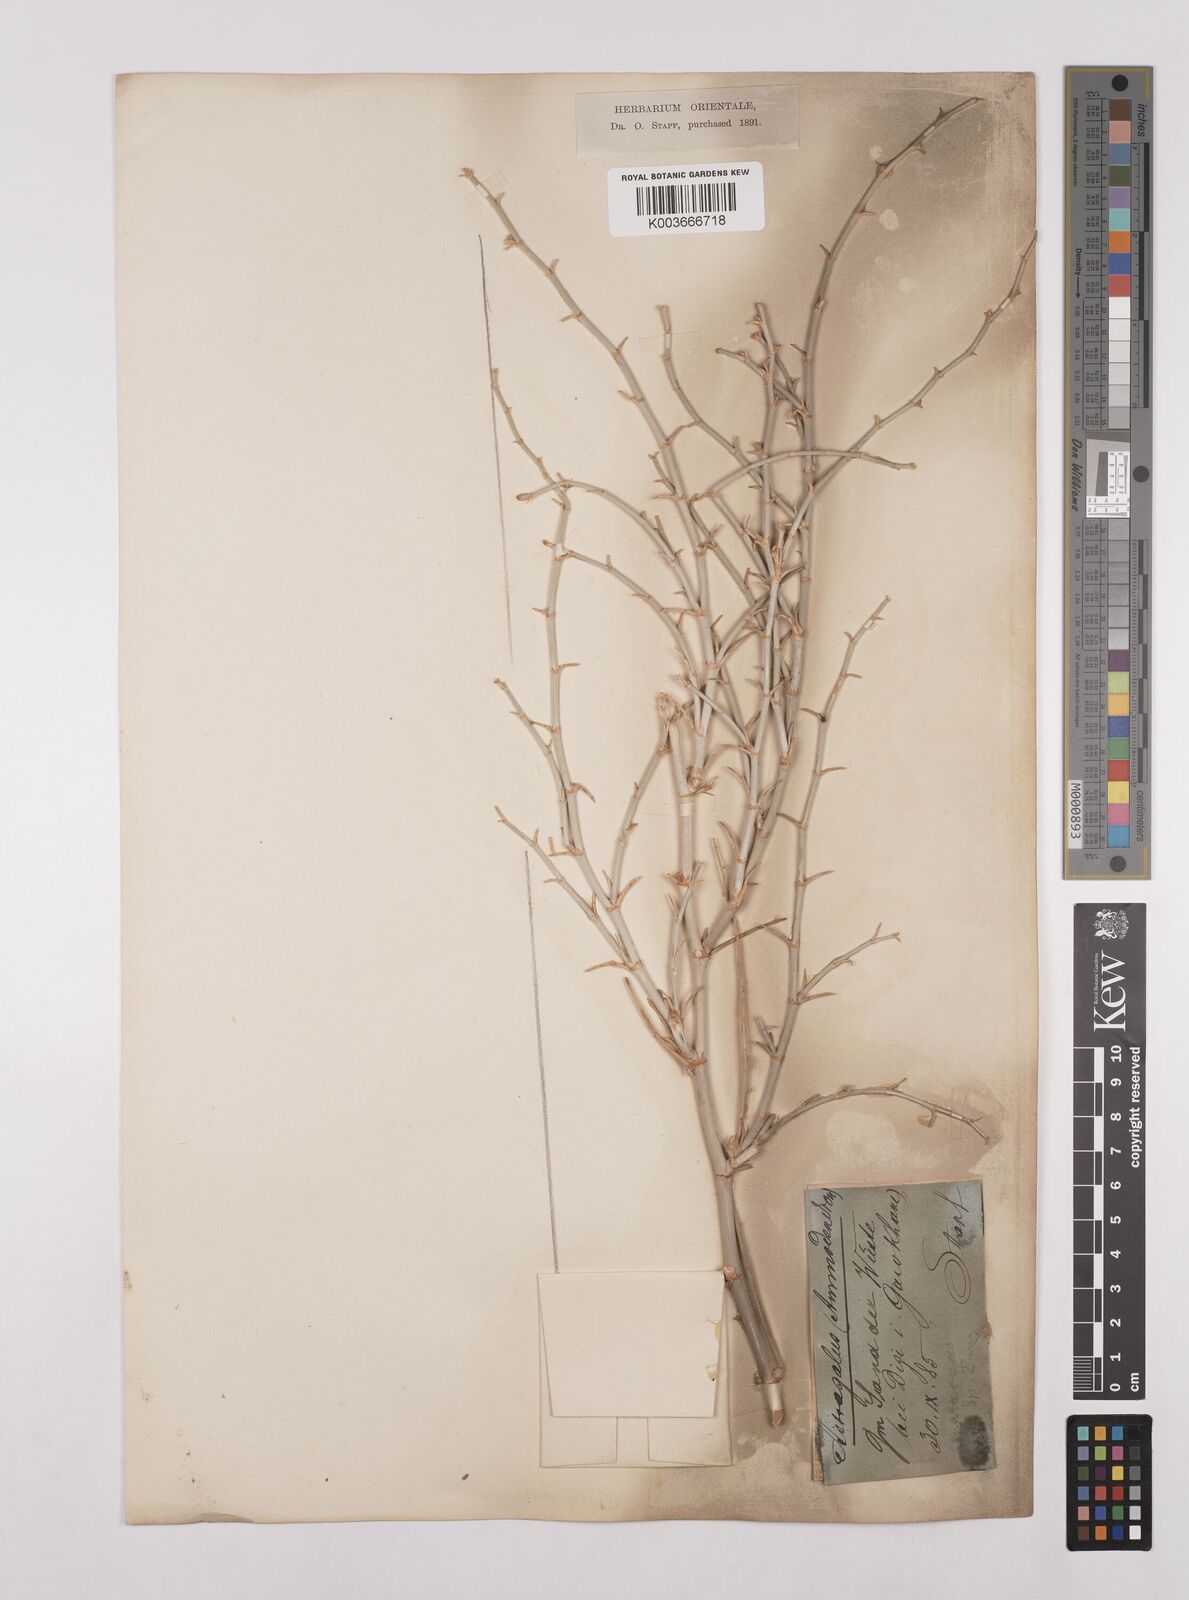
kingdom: Plantae
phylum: Tracheophyta
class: Magnoliopsida
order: Fabales
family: Fabaceae
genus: Astragalus
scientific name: Astragalus squarrosus
